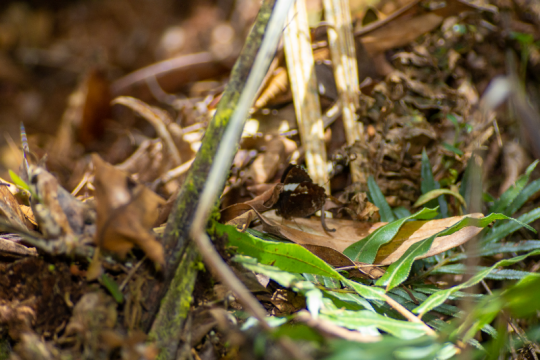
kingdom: Animalia
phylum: Arthropoda
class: Insecta
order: Lepidoptera
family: Nymphalidae
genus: Pedaliodes
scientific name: Pedaliodes peucestas
